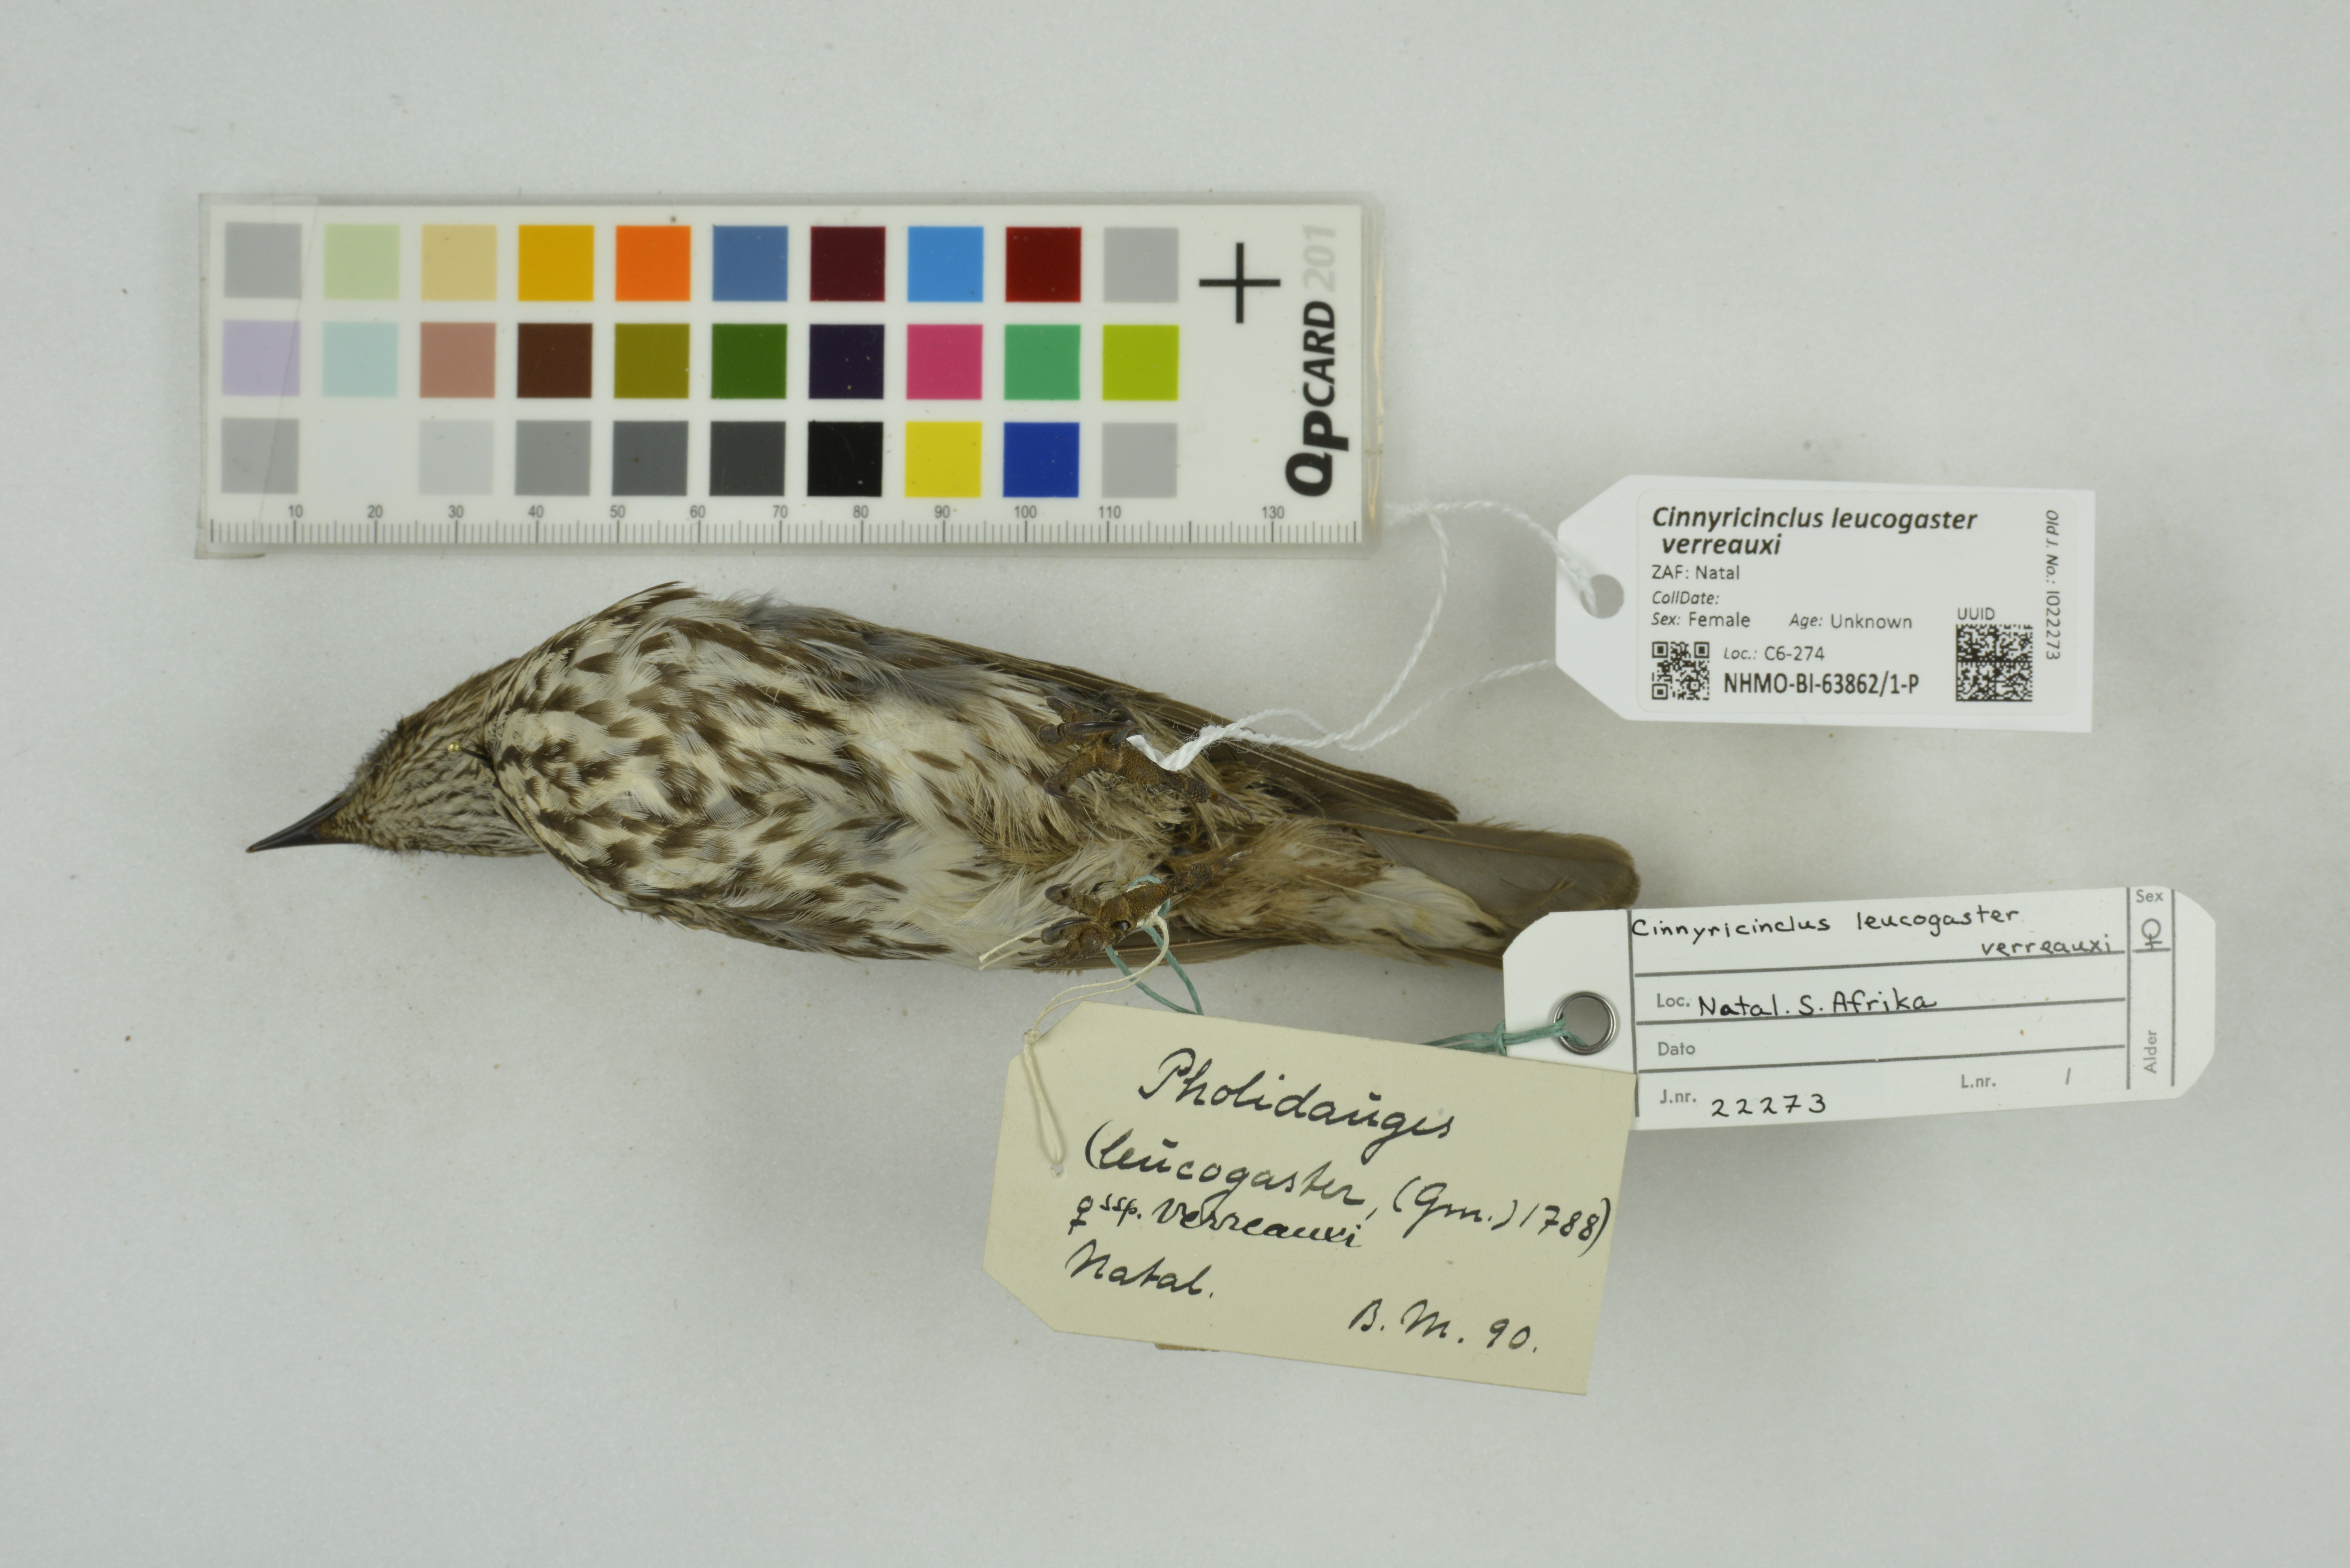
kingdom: Animalia
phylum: Chordata
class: Aves
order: Passeriformes
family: Sturnidae
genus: Cinnyricinclus
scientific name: Cinnyricinclus leucogaster
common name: Violet-backed starling
